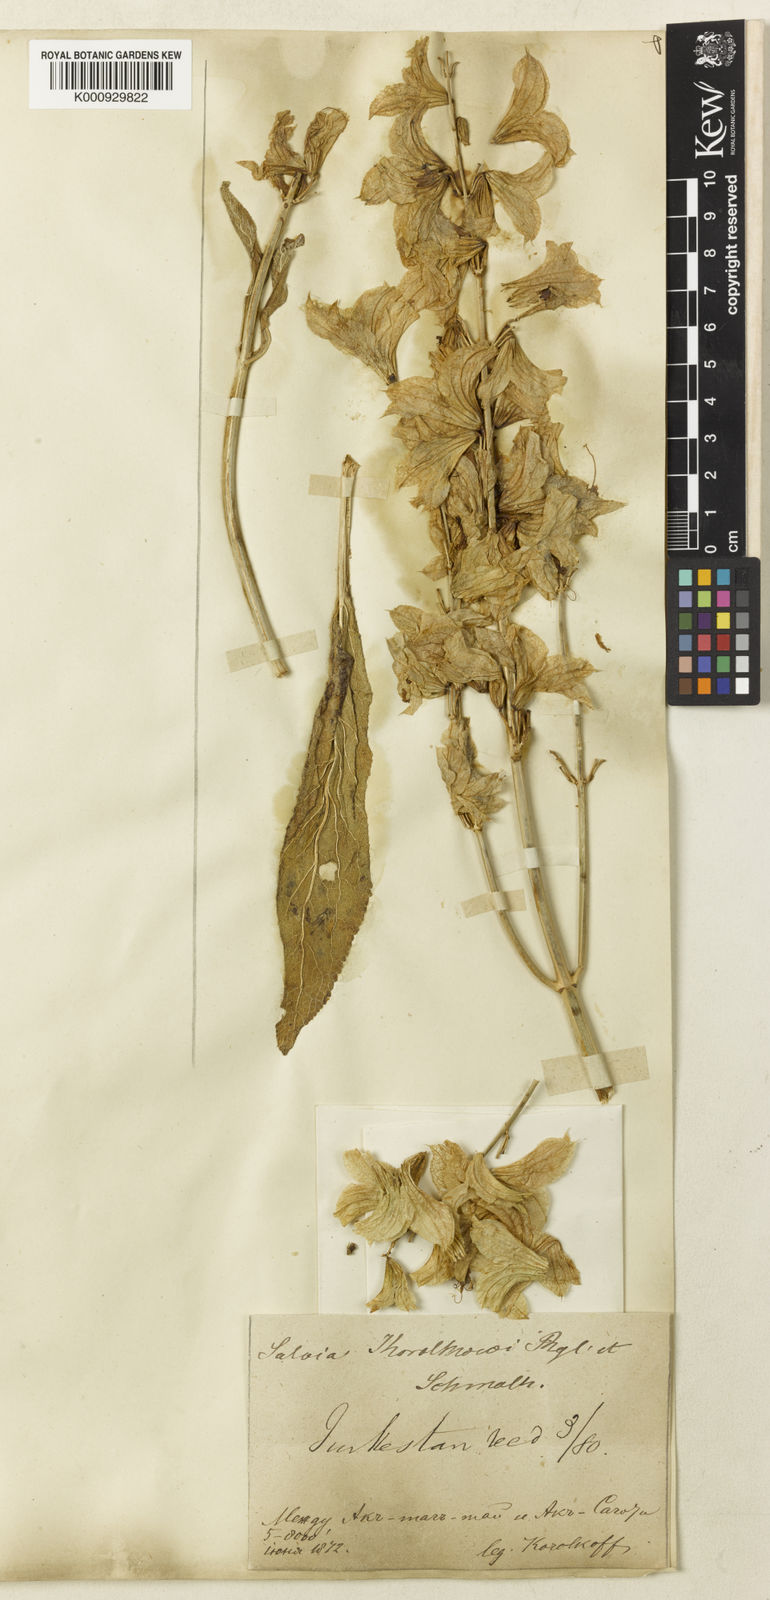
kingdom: Plantae
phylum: Tracheophyta
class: Magnoliopsida
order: Lamiales
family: Lamiaceae
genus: Salvia
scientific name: Salvia
